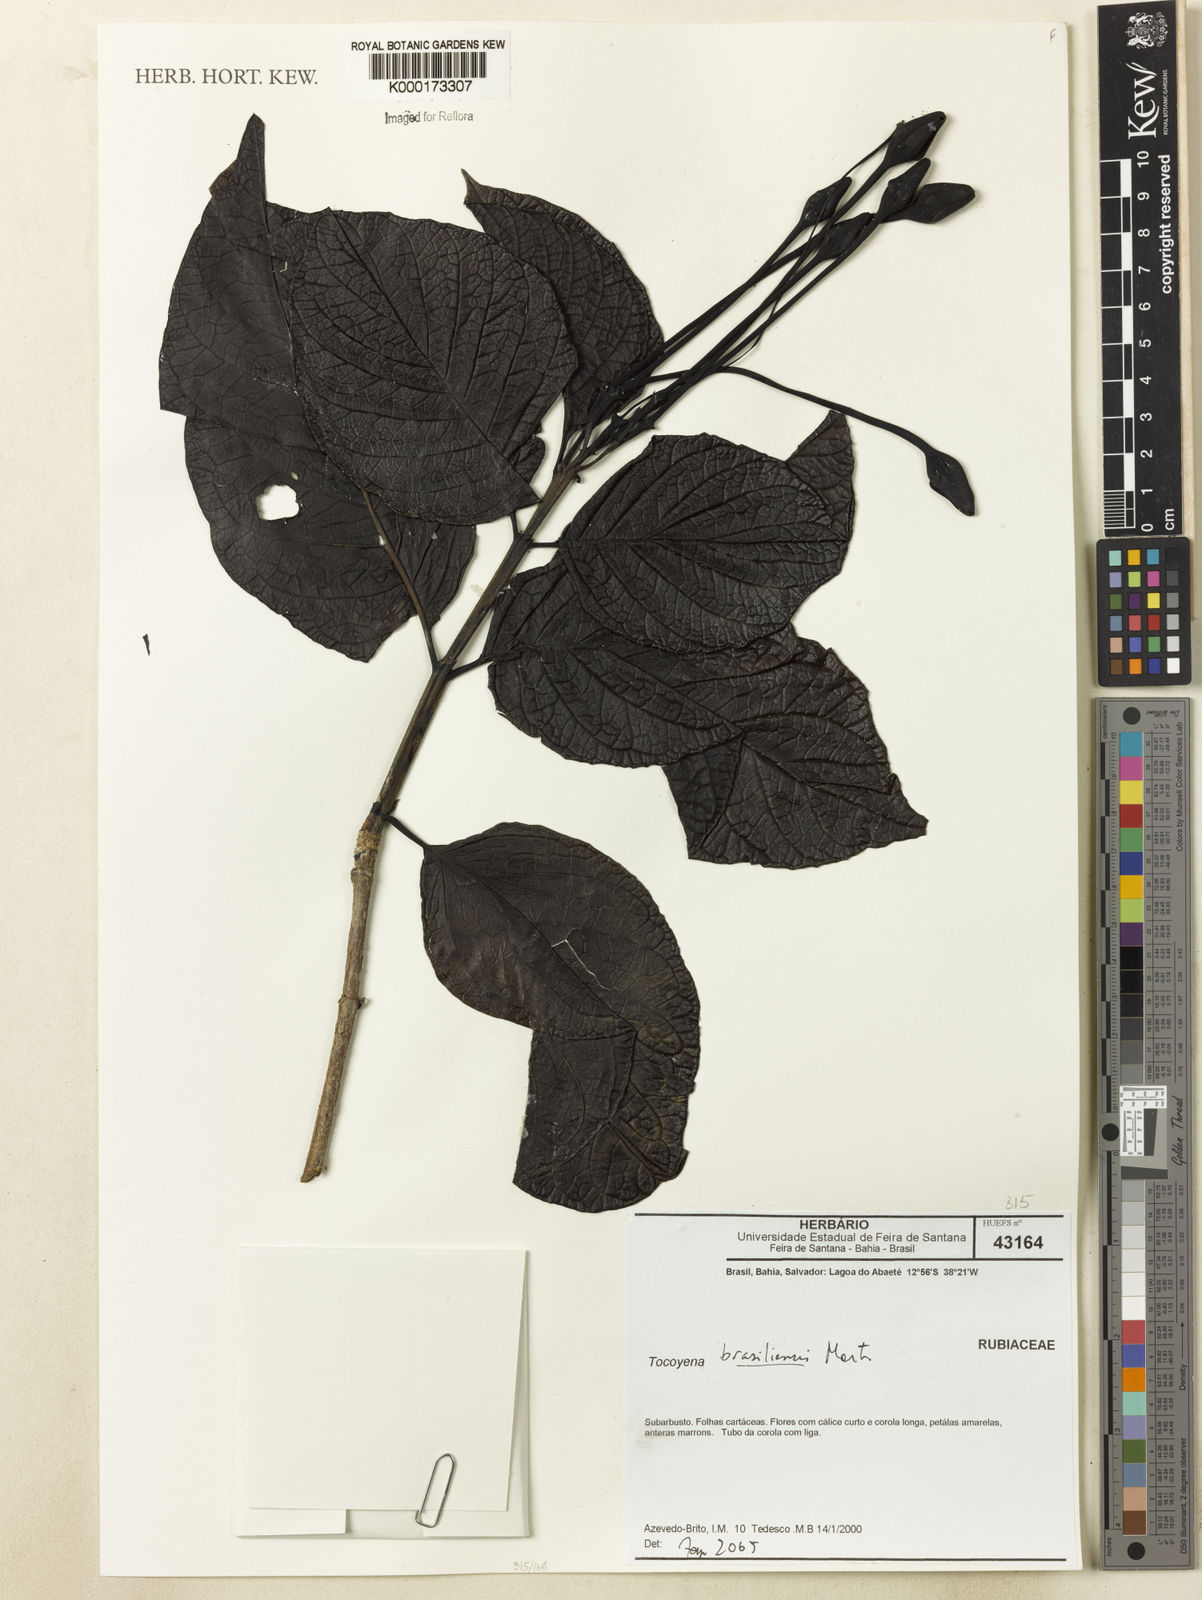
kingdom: Plantae
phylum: Tracheophyta
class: Magnoliopsida
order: Gentianales
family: Rubiaceae
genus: Tocoyena
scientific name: Tocoyena sprucei
